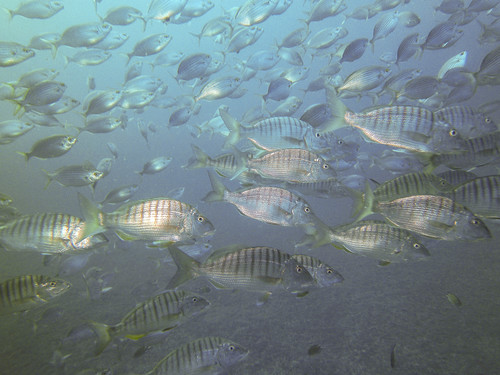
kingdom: Animalia
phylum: Chordata
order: Perciformes
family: Sparidae
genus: Lithognathus
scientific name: Lithognathus mormyrus
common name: Sand steenbras
